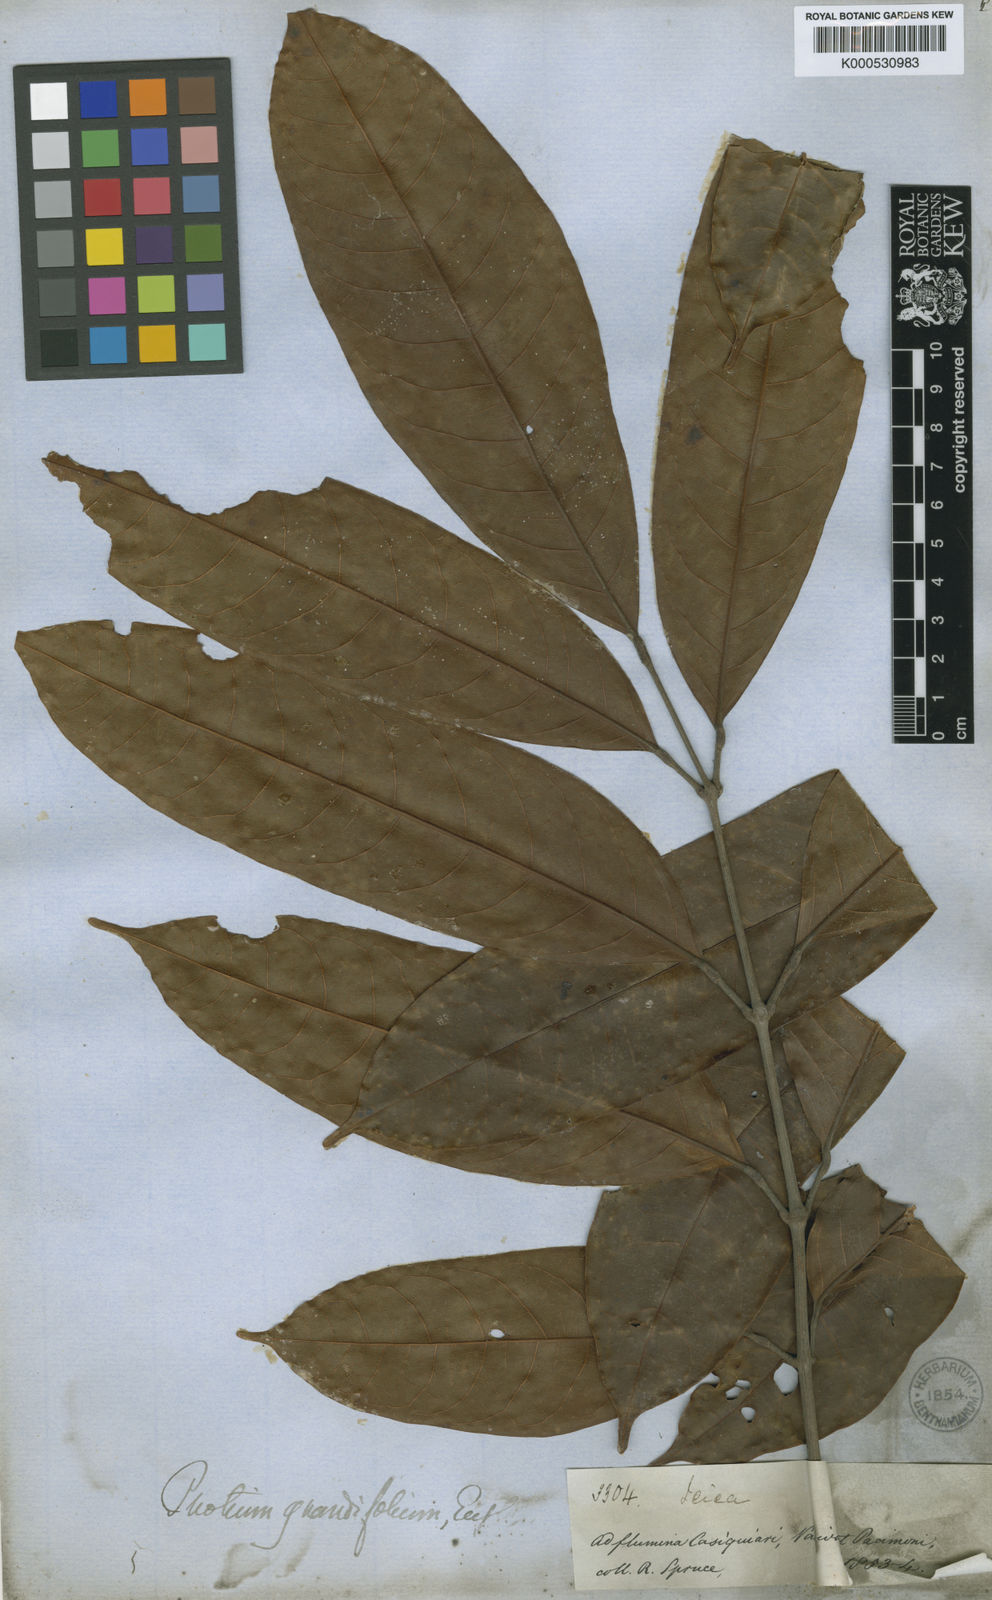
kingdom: Plantae
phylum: Tracheophyta
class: Magnoliopsida
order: Sapindales
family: Burseraceae
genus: Protium
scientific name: Protium grandifolium
